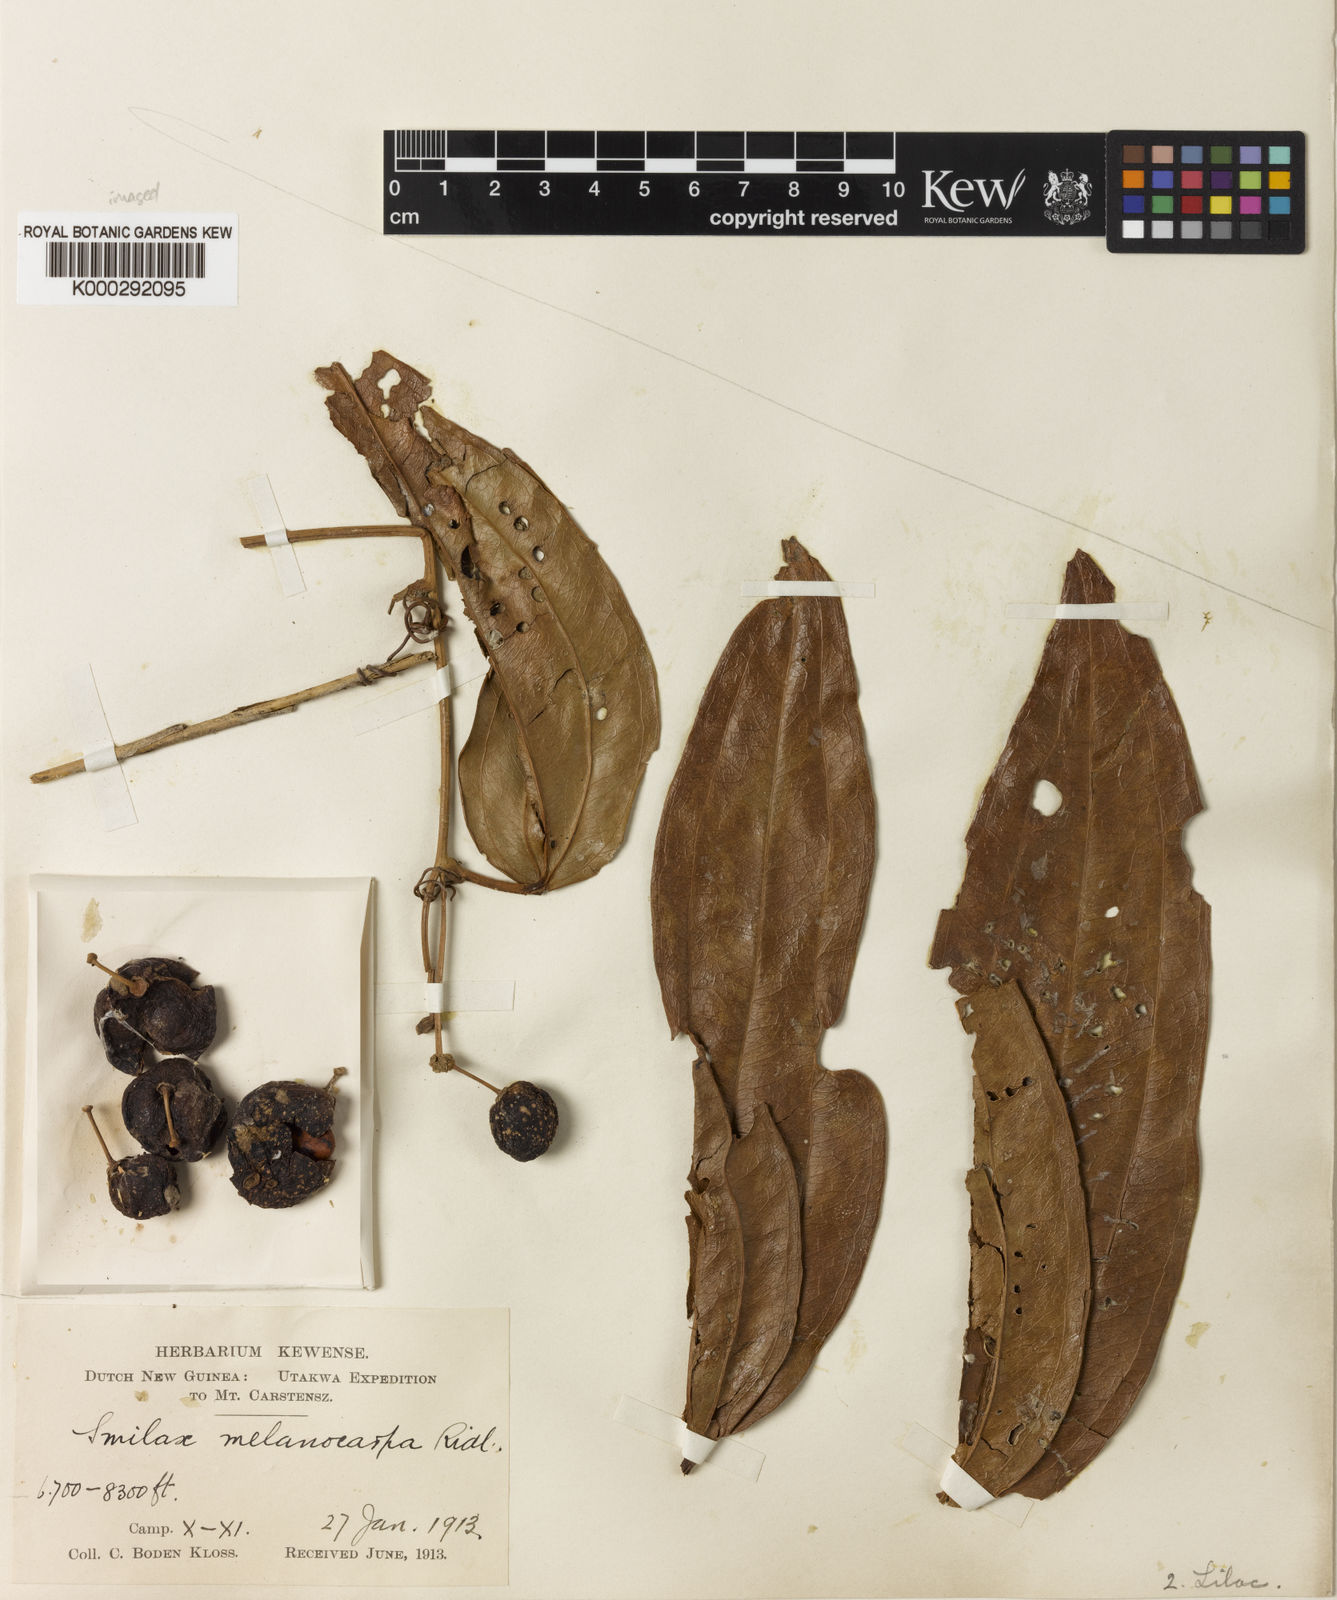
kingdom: Plantae
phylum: Tracheophyta
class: Liliopsida
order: Liliales
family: Smilacaceae
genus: Smilax
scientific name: Smilax melanocarpa
